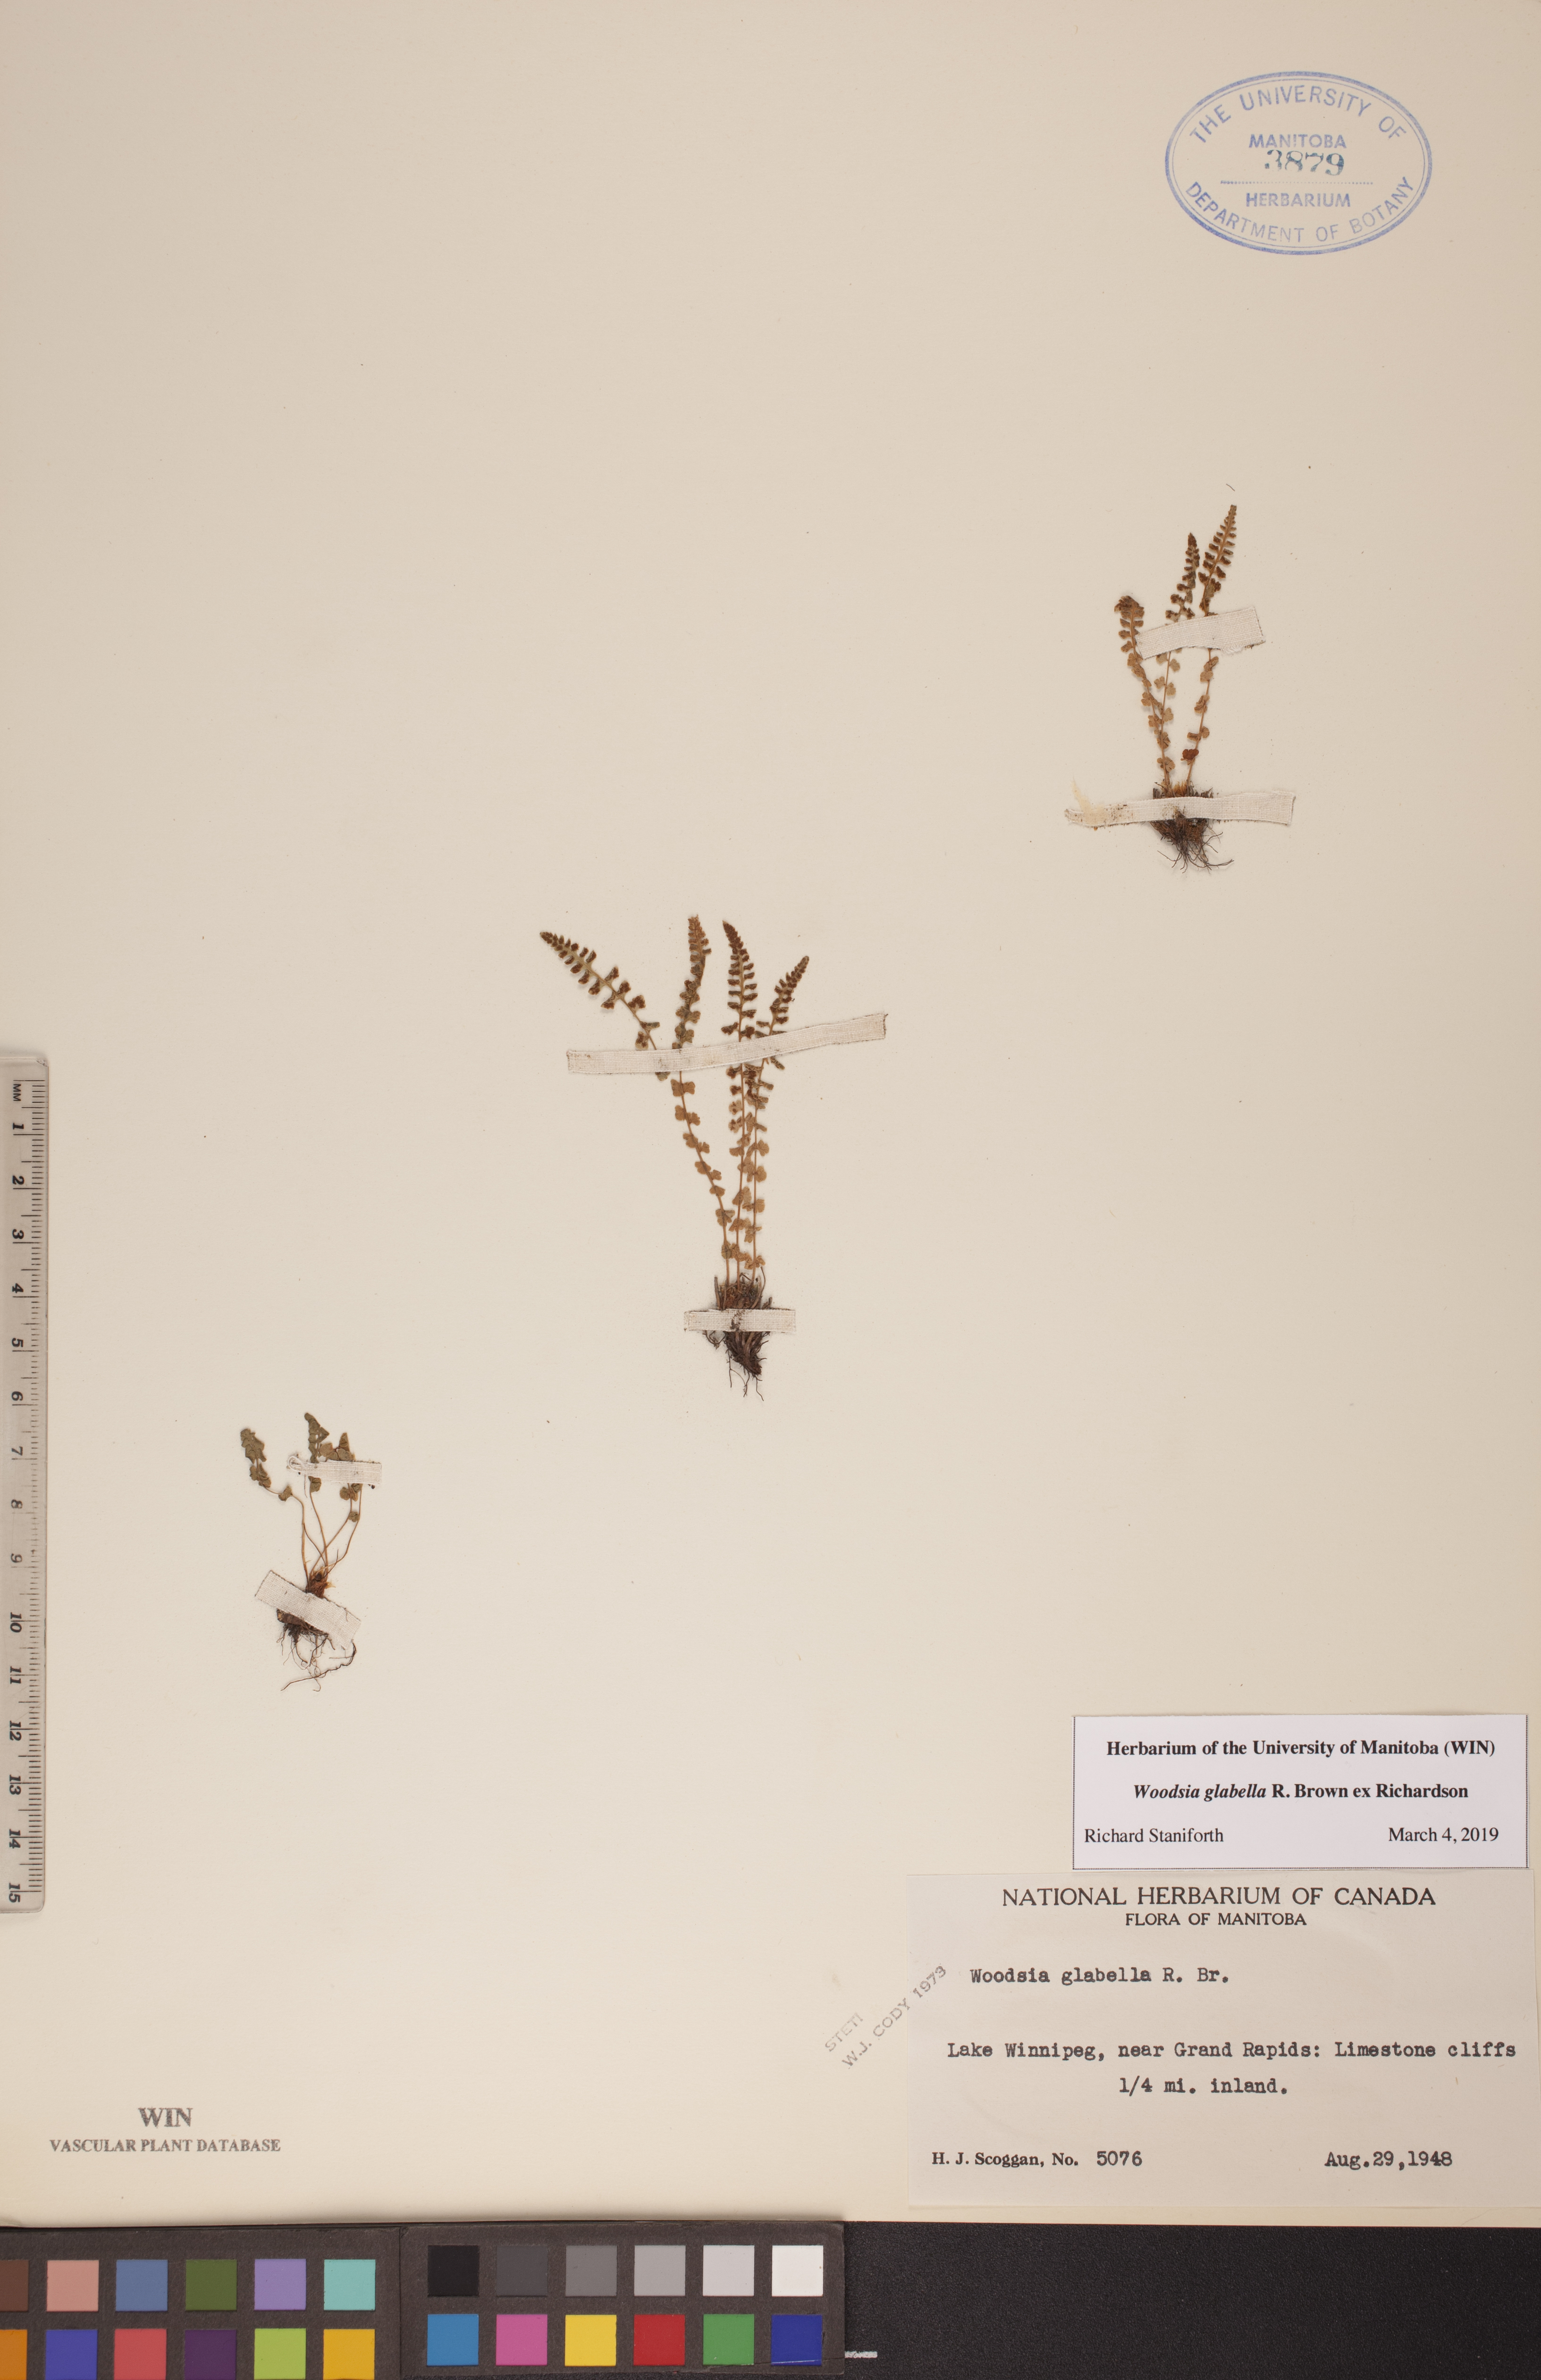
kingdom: Plantae
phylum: Tracheophyta
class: Polypodiopsida
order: Polypodiales
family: Woodsiaceae
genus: Woodsia
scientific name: Woodsia glabella
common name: Smooth woodsia
